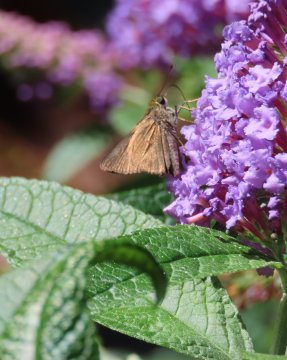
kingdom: Animalia
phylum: Arthropoda
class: Insecta
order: Lepidoptera
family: Hesperiidae
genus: Euphyes
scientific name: Euphyes vestris
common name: Dun Skipper
